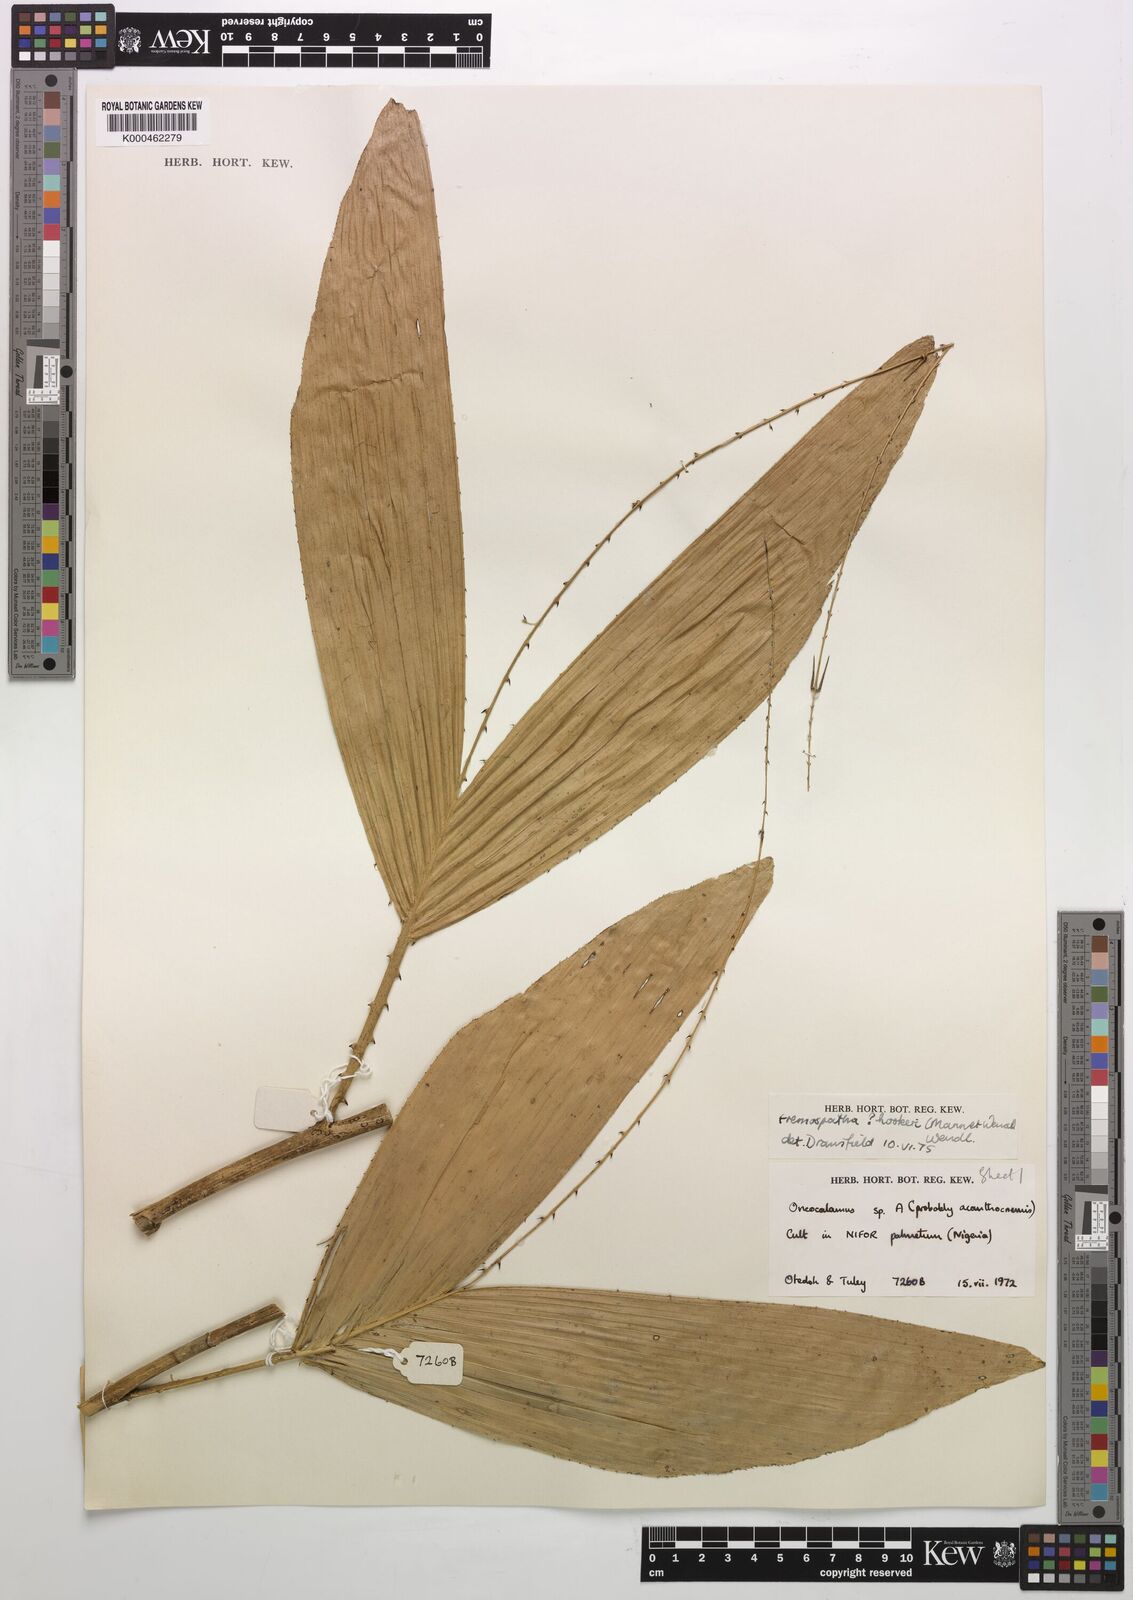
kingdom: Plantae
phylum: Tracheophyta
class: Liliopsida
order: Arecales
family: Arecaceae
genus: Eremospatha
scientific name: Eremospatha hookeri
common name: Rattan
